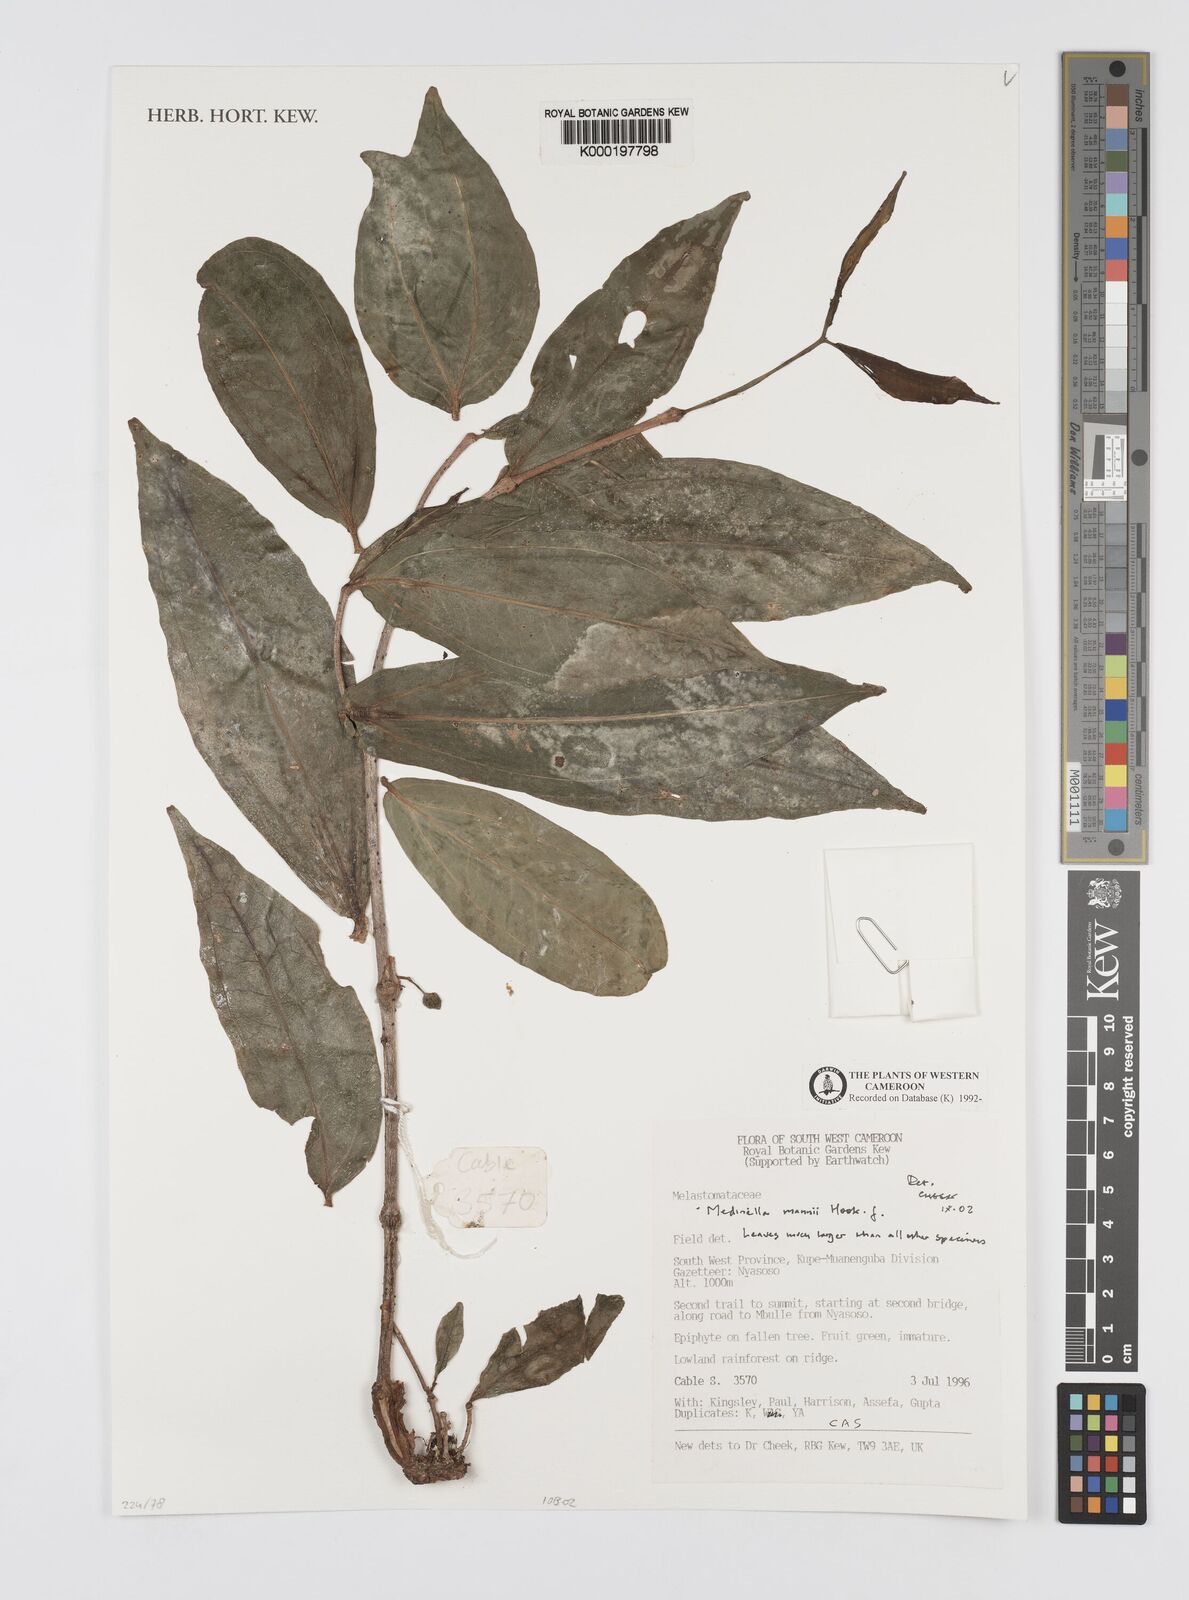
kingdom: Plantae
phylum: Tracheophyta
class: Magnoliopsida
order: Myrtales
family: Melastomataceae
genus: Medinilla
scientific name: Medinilla mannii
